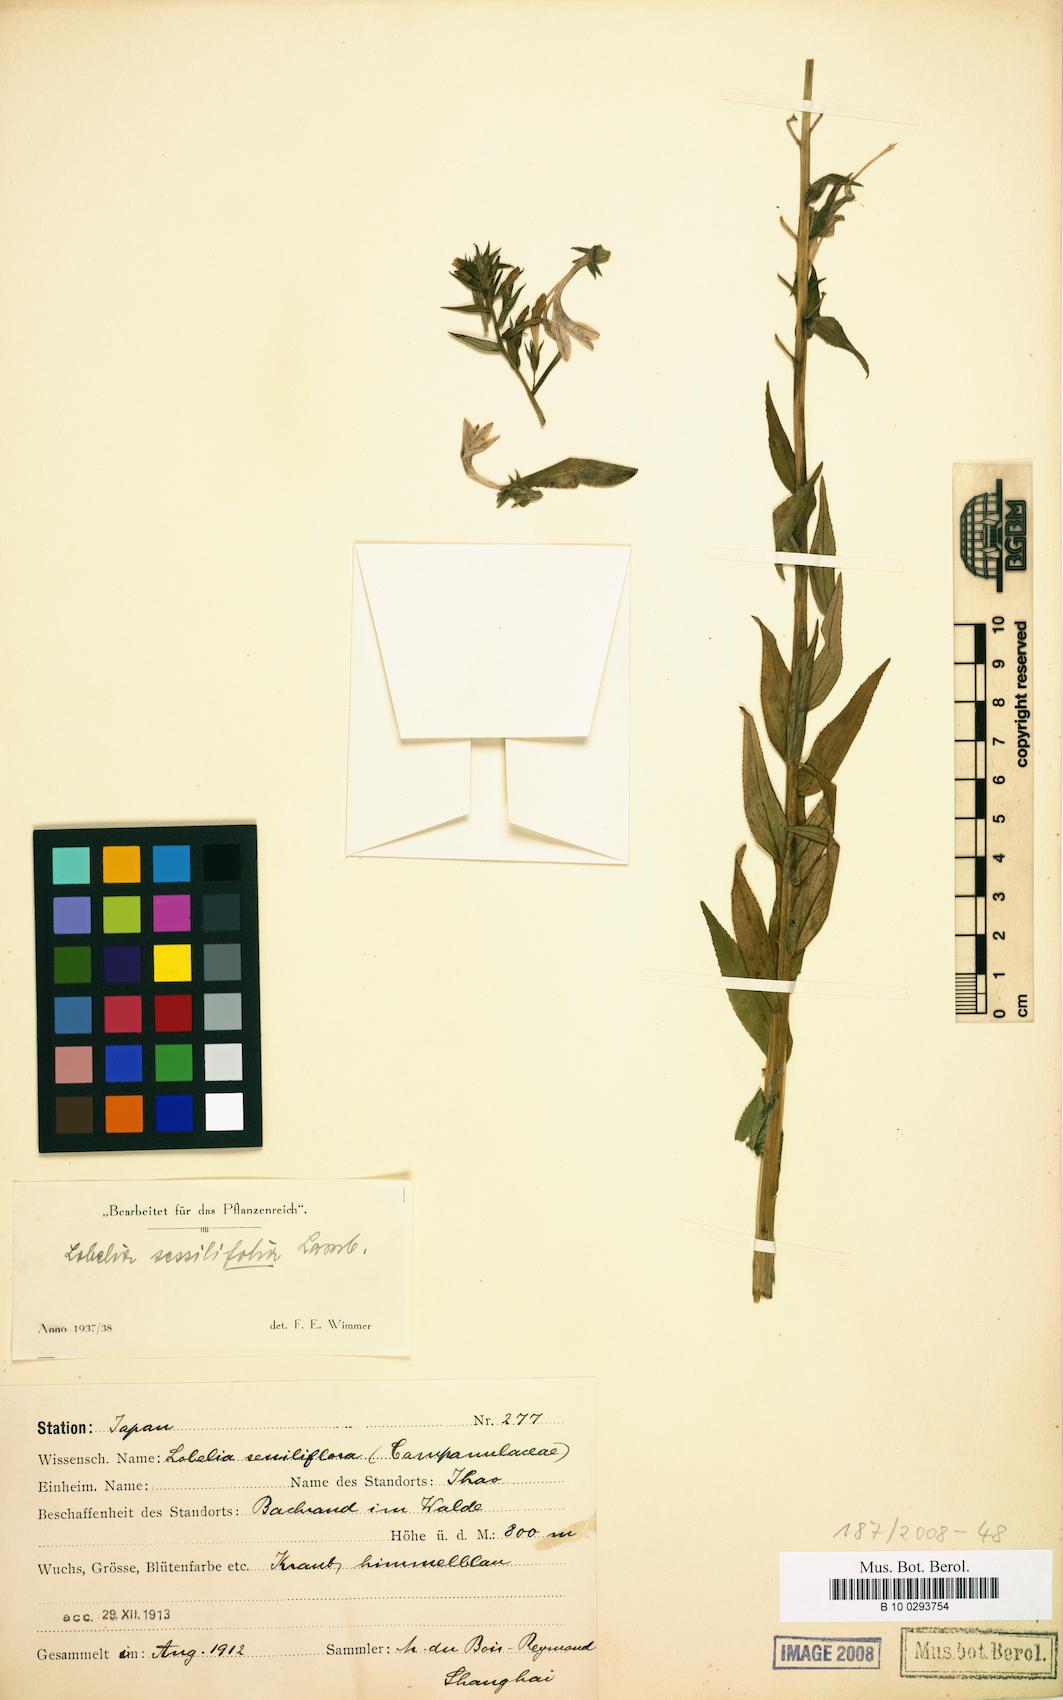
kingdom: Plantae
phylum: Tracheophyta
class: Magnoliopsida
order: Asterales
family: Campanulaceae
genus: Lobelia
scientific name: Lobelia sessilifolia
